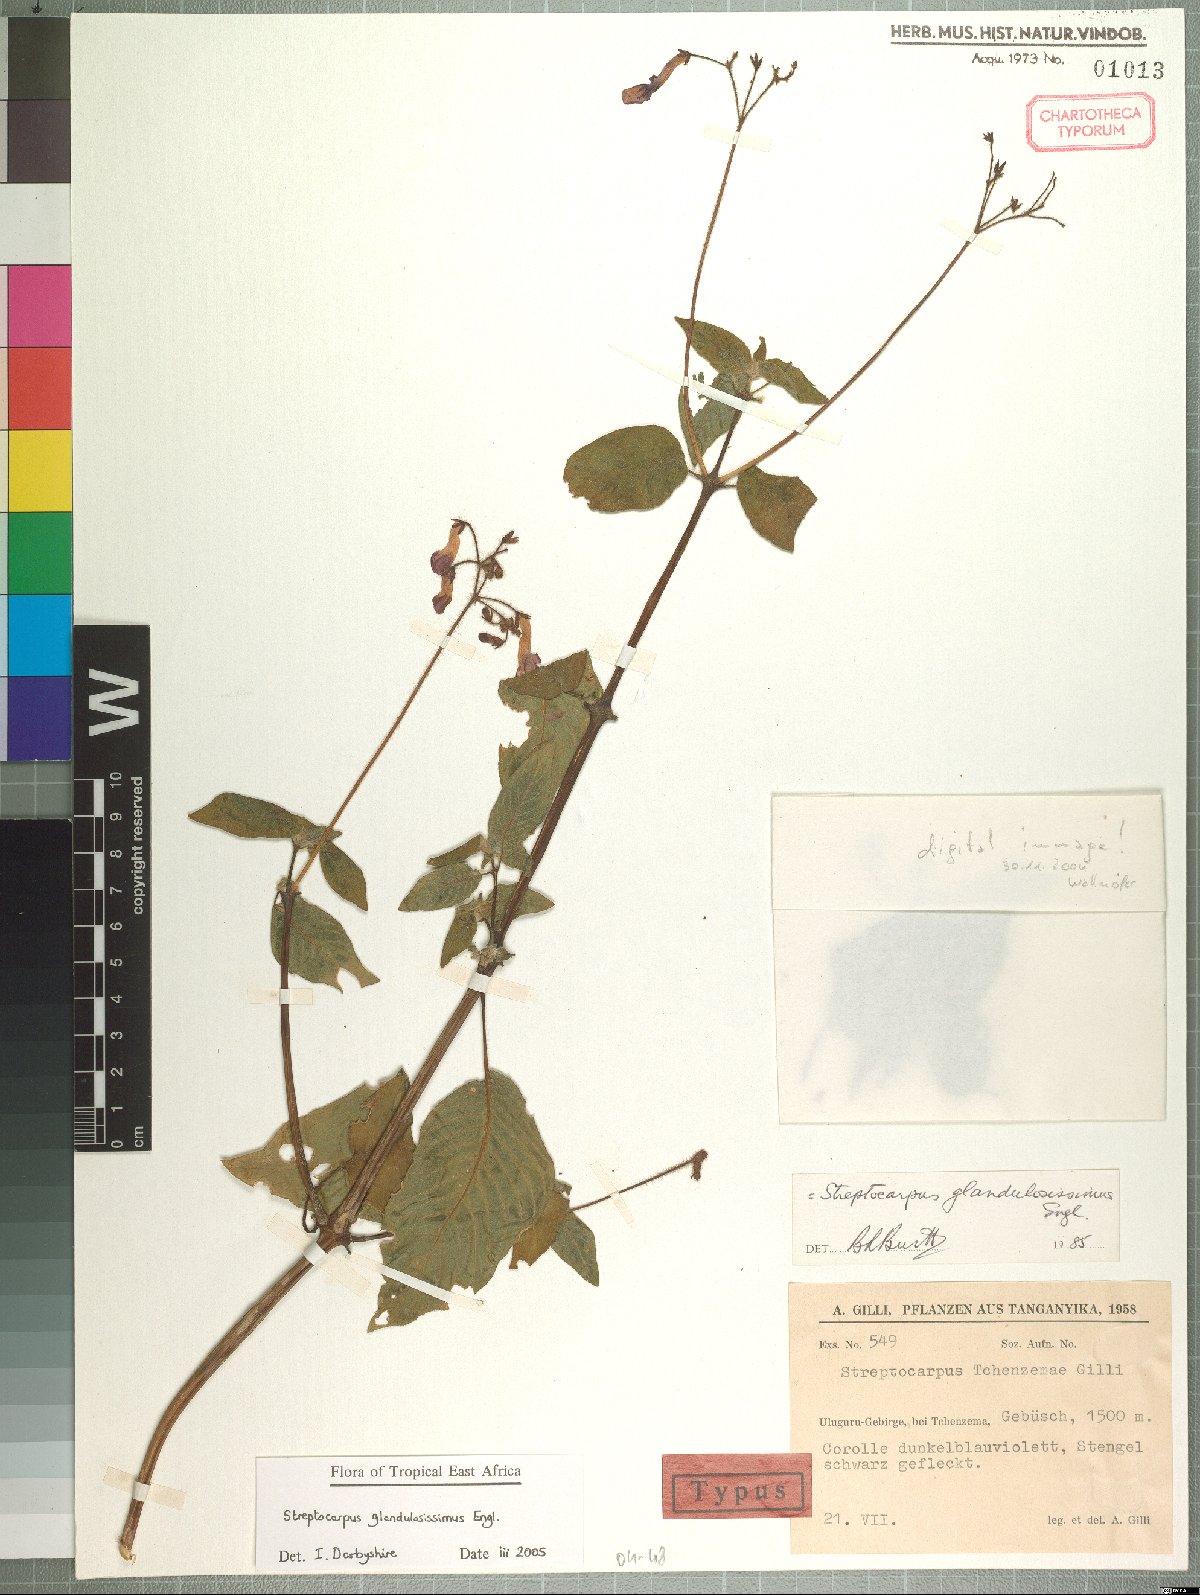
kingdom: Plantae
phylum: Tracheophyta
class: Magnoliopsida
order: Lamiales
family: Gesneriaceae
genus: Streptocarpus
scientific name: Streptocarpus glandulosissimus
